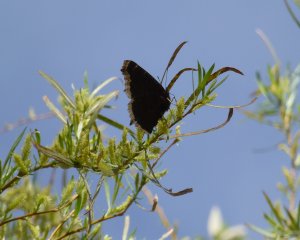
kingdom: Animalia
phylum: Arthropoda
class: Insecta
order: Lepidoptera
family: Nymphalidae
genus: Nymphalis
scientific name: Nymphalis antiopa
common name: Mourning Cloak
